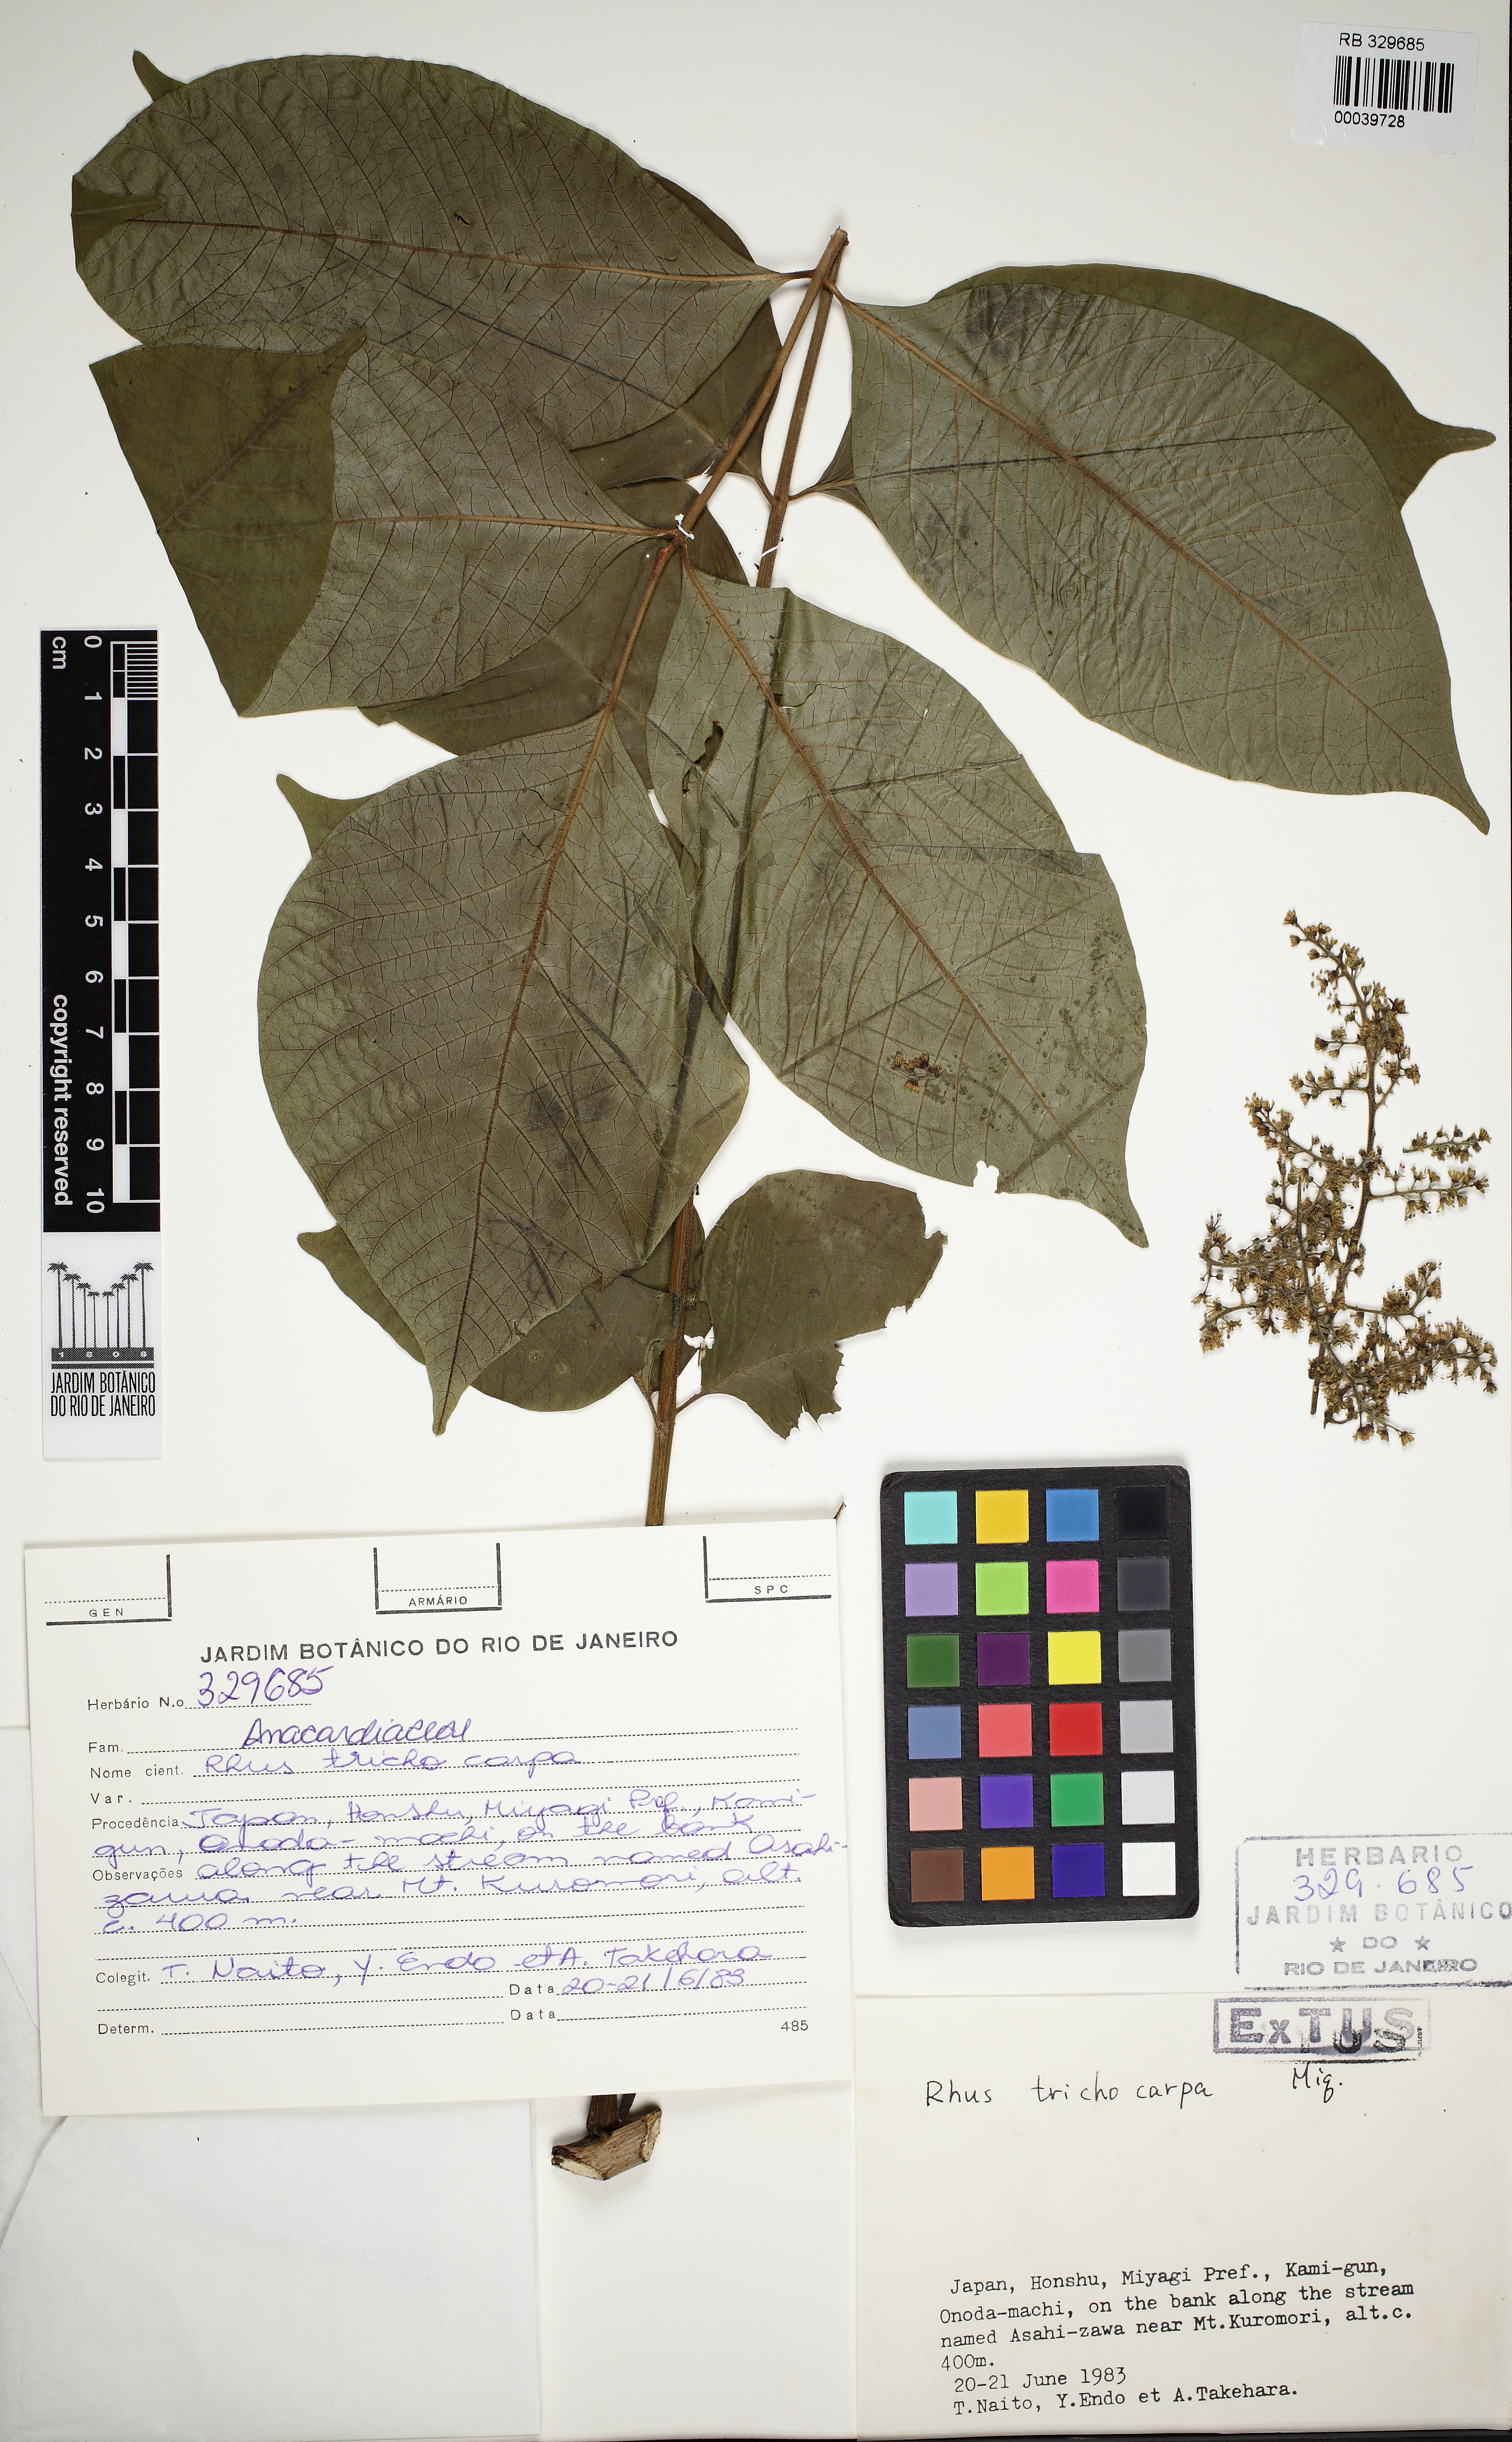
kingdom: Plantae
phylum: Tracheophyta
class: Magnoliopsida
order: Sapindales
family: Anacardiaceae
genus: Toxicodendron
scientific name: Toxicodendron trichocarpum
